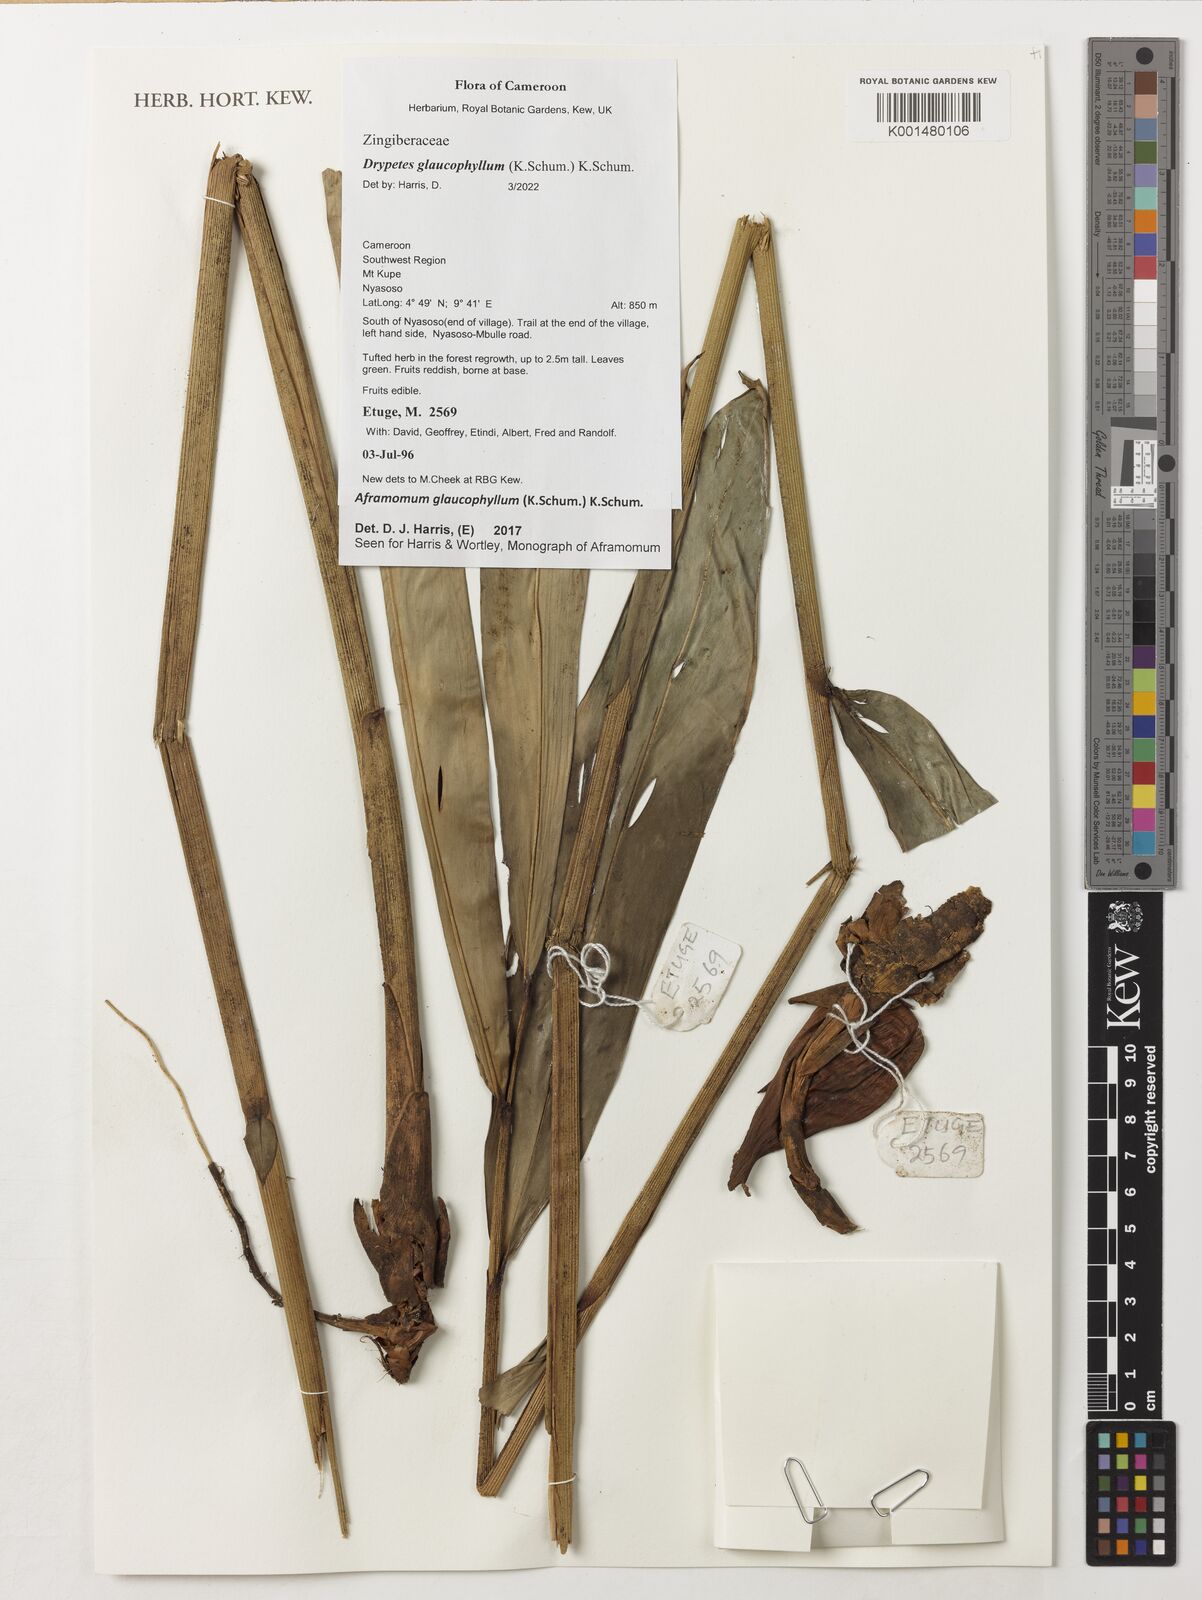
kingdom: Plantae
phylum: Tracheophyta
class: Liliopsida
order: Zingiberales
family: Zingiberaceae
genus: Aframomum
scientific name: Aframomum glaucophyllum
